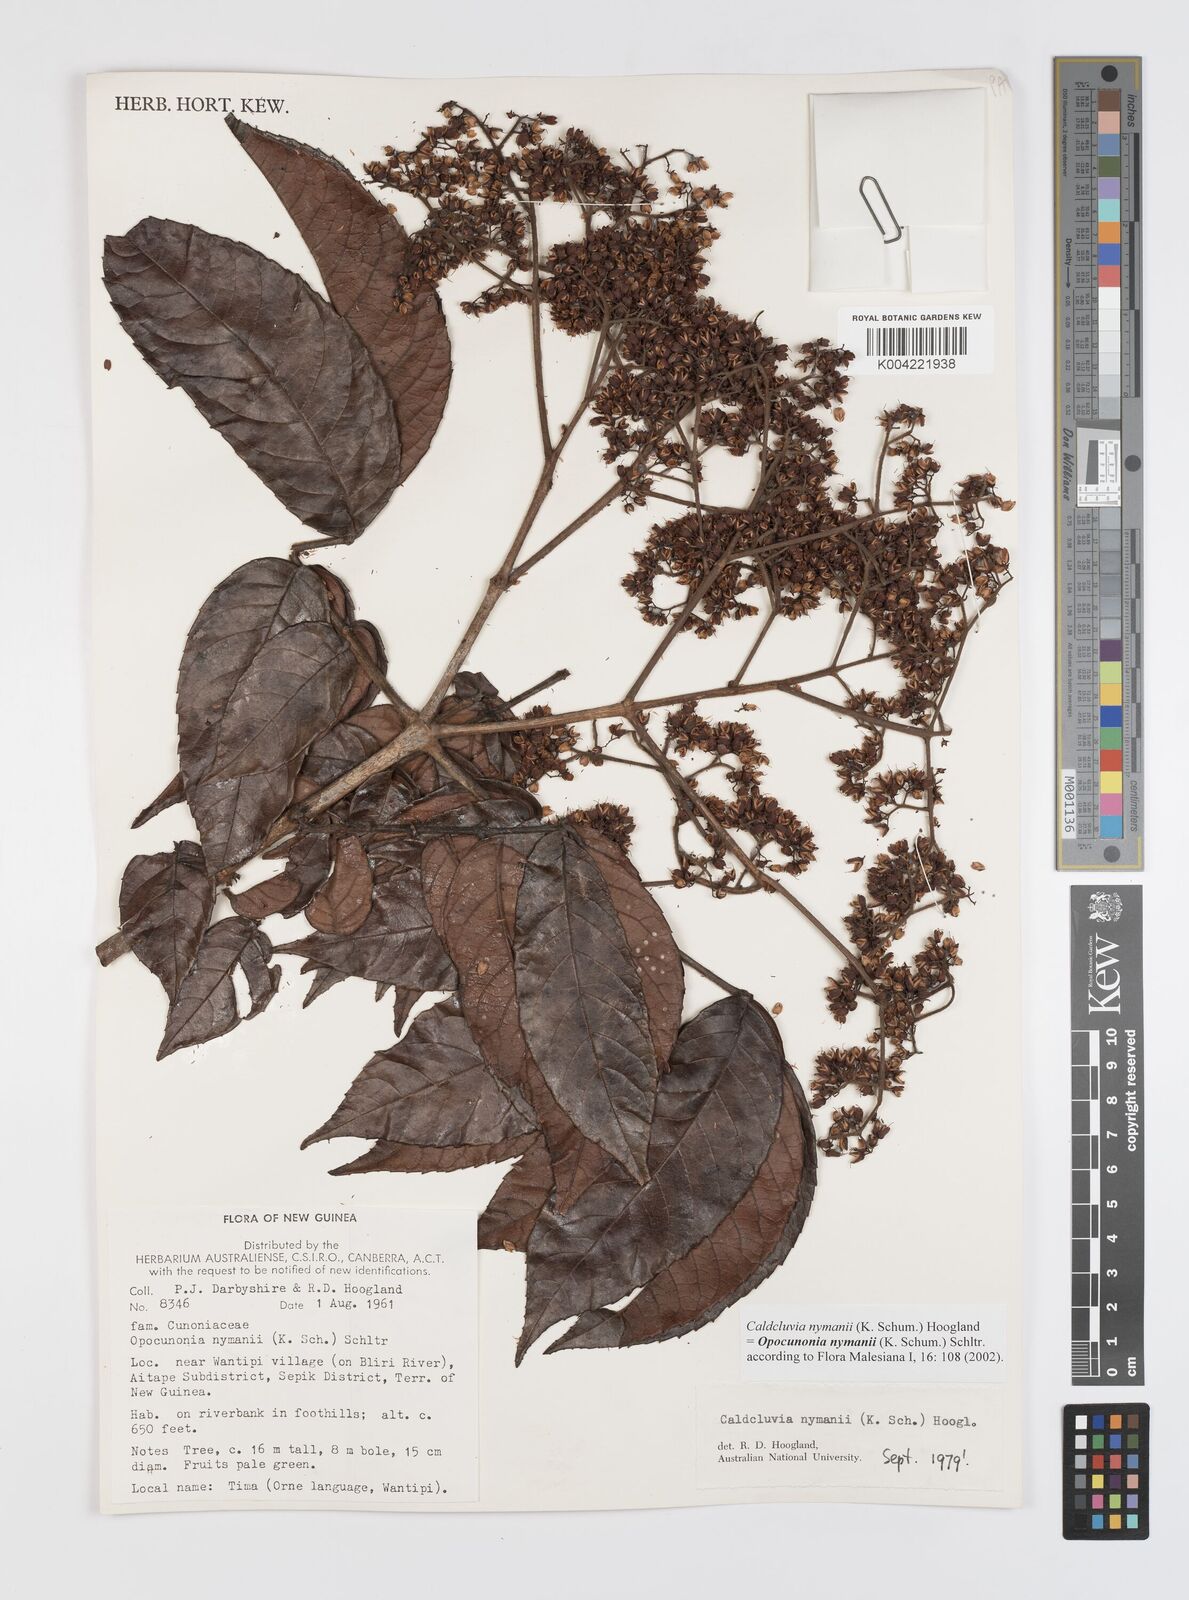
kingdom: Plantae
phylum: Tracheophyta
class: Magnoliopsida
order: Oxalidales
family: Cunoniaceae
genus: Opocunonia
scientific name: Opocunonia nymanii
